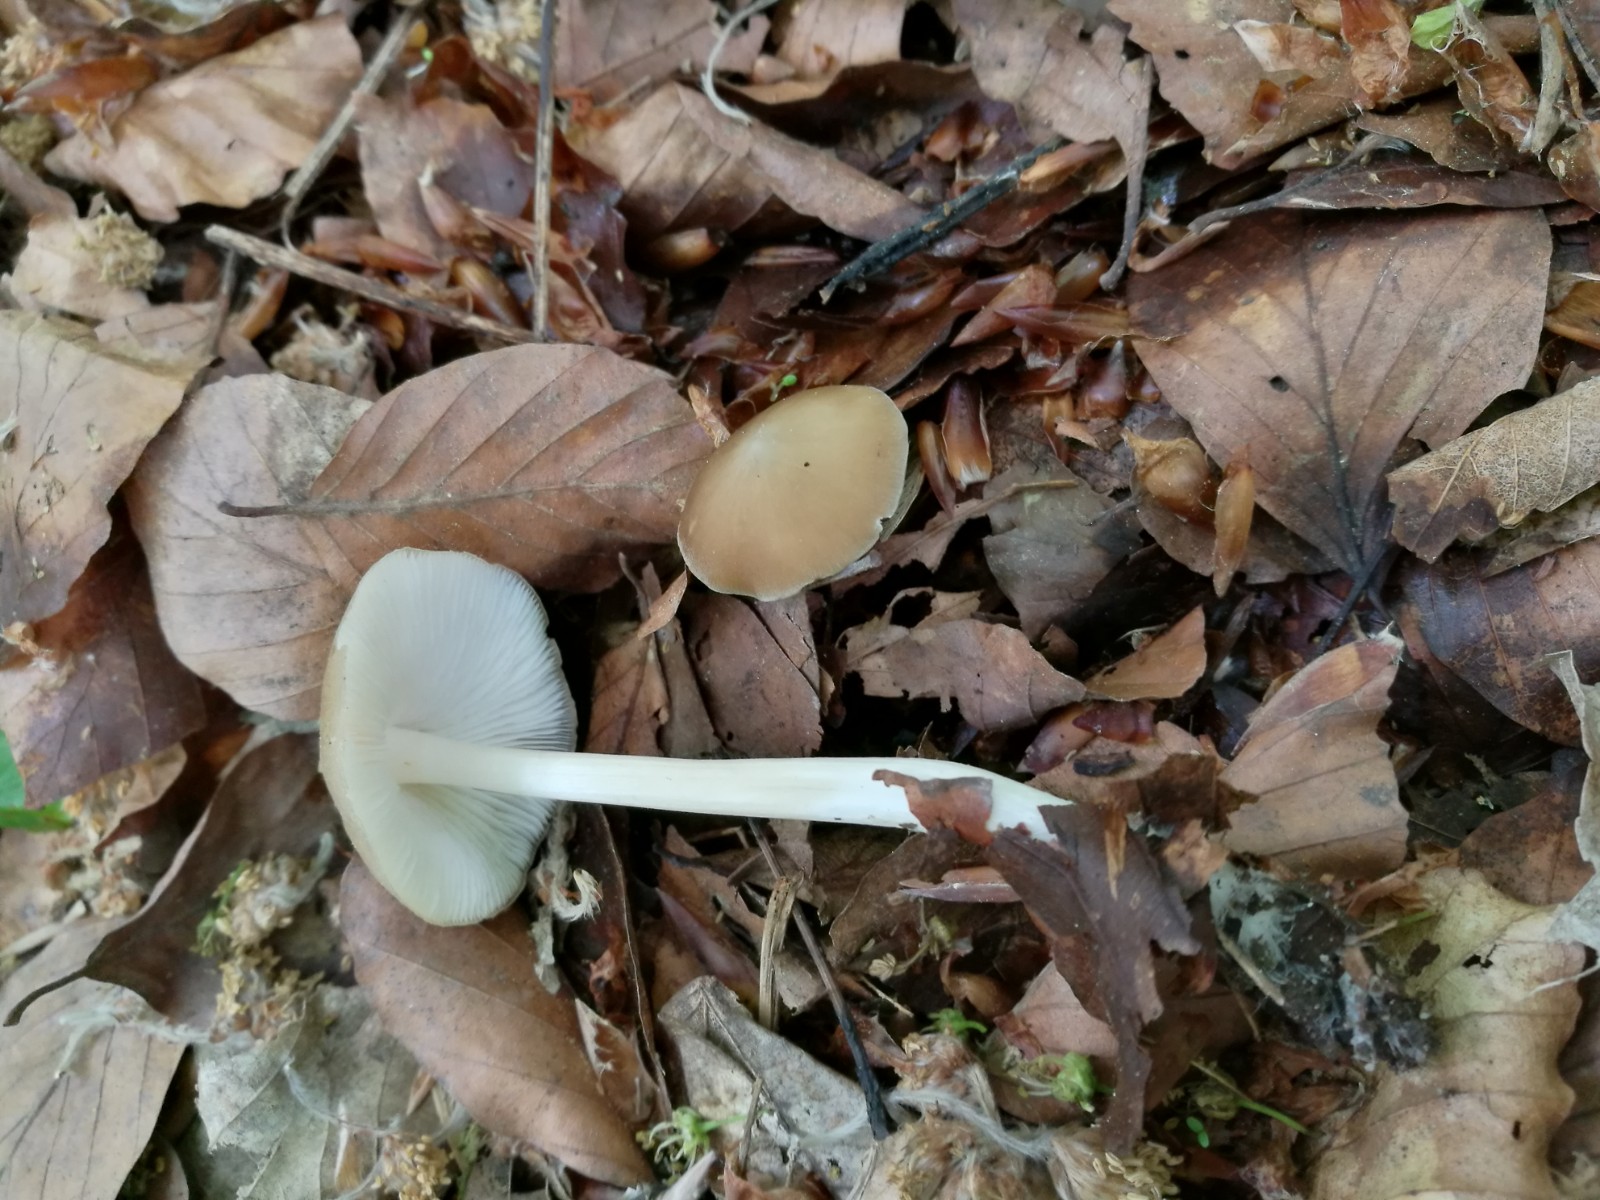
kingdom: Fungi
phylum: Basidiomycota
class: Agaricomycetes
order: Agaricales
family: Porotheleaceae
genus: Hydropodia
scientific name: Hydropodia subalpina
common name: vår-fnugfod
